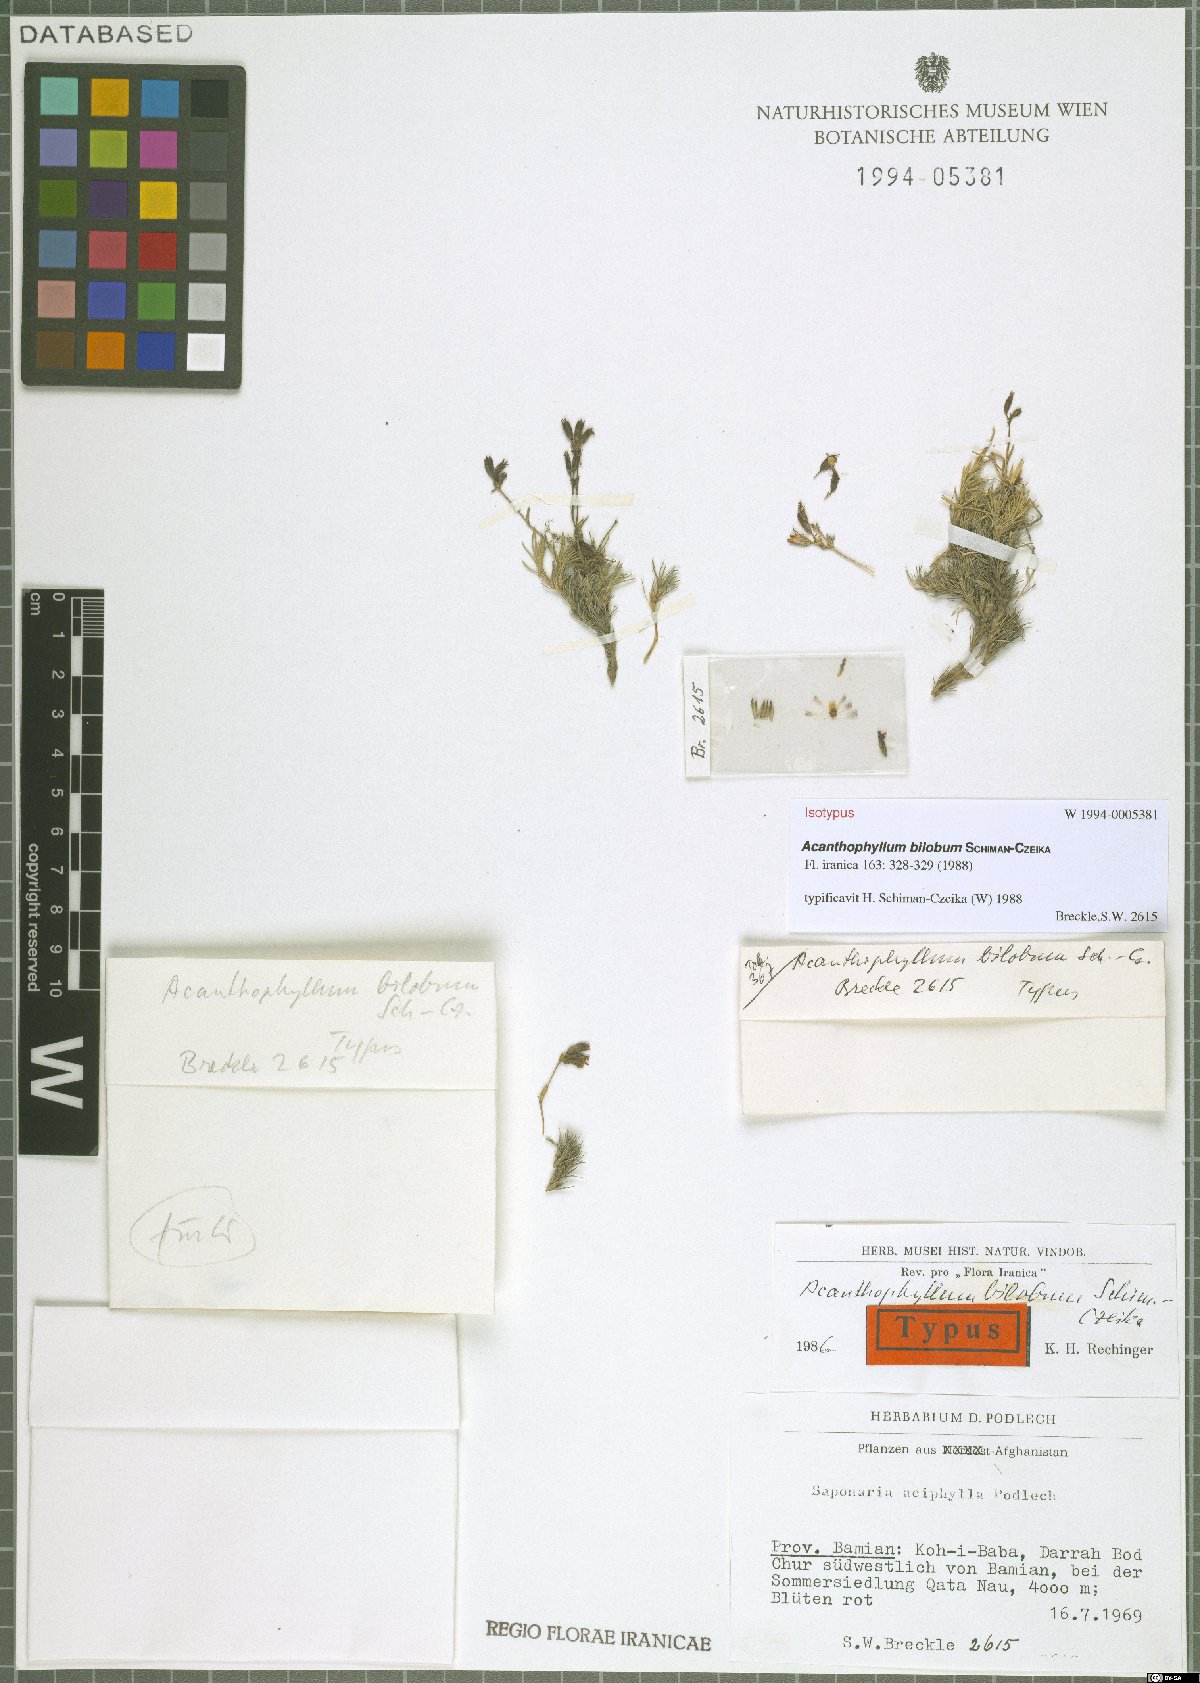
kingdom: Plantae
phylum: Tracheophyta
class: Magnoliopsida
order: Caryophyllales
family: Caryophyllaceae
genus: Acanthophyllum
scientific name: Acanthophyllum bilobum
